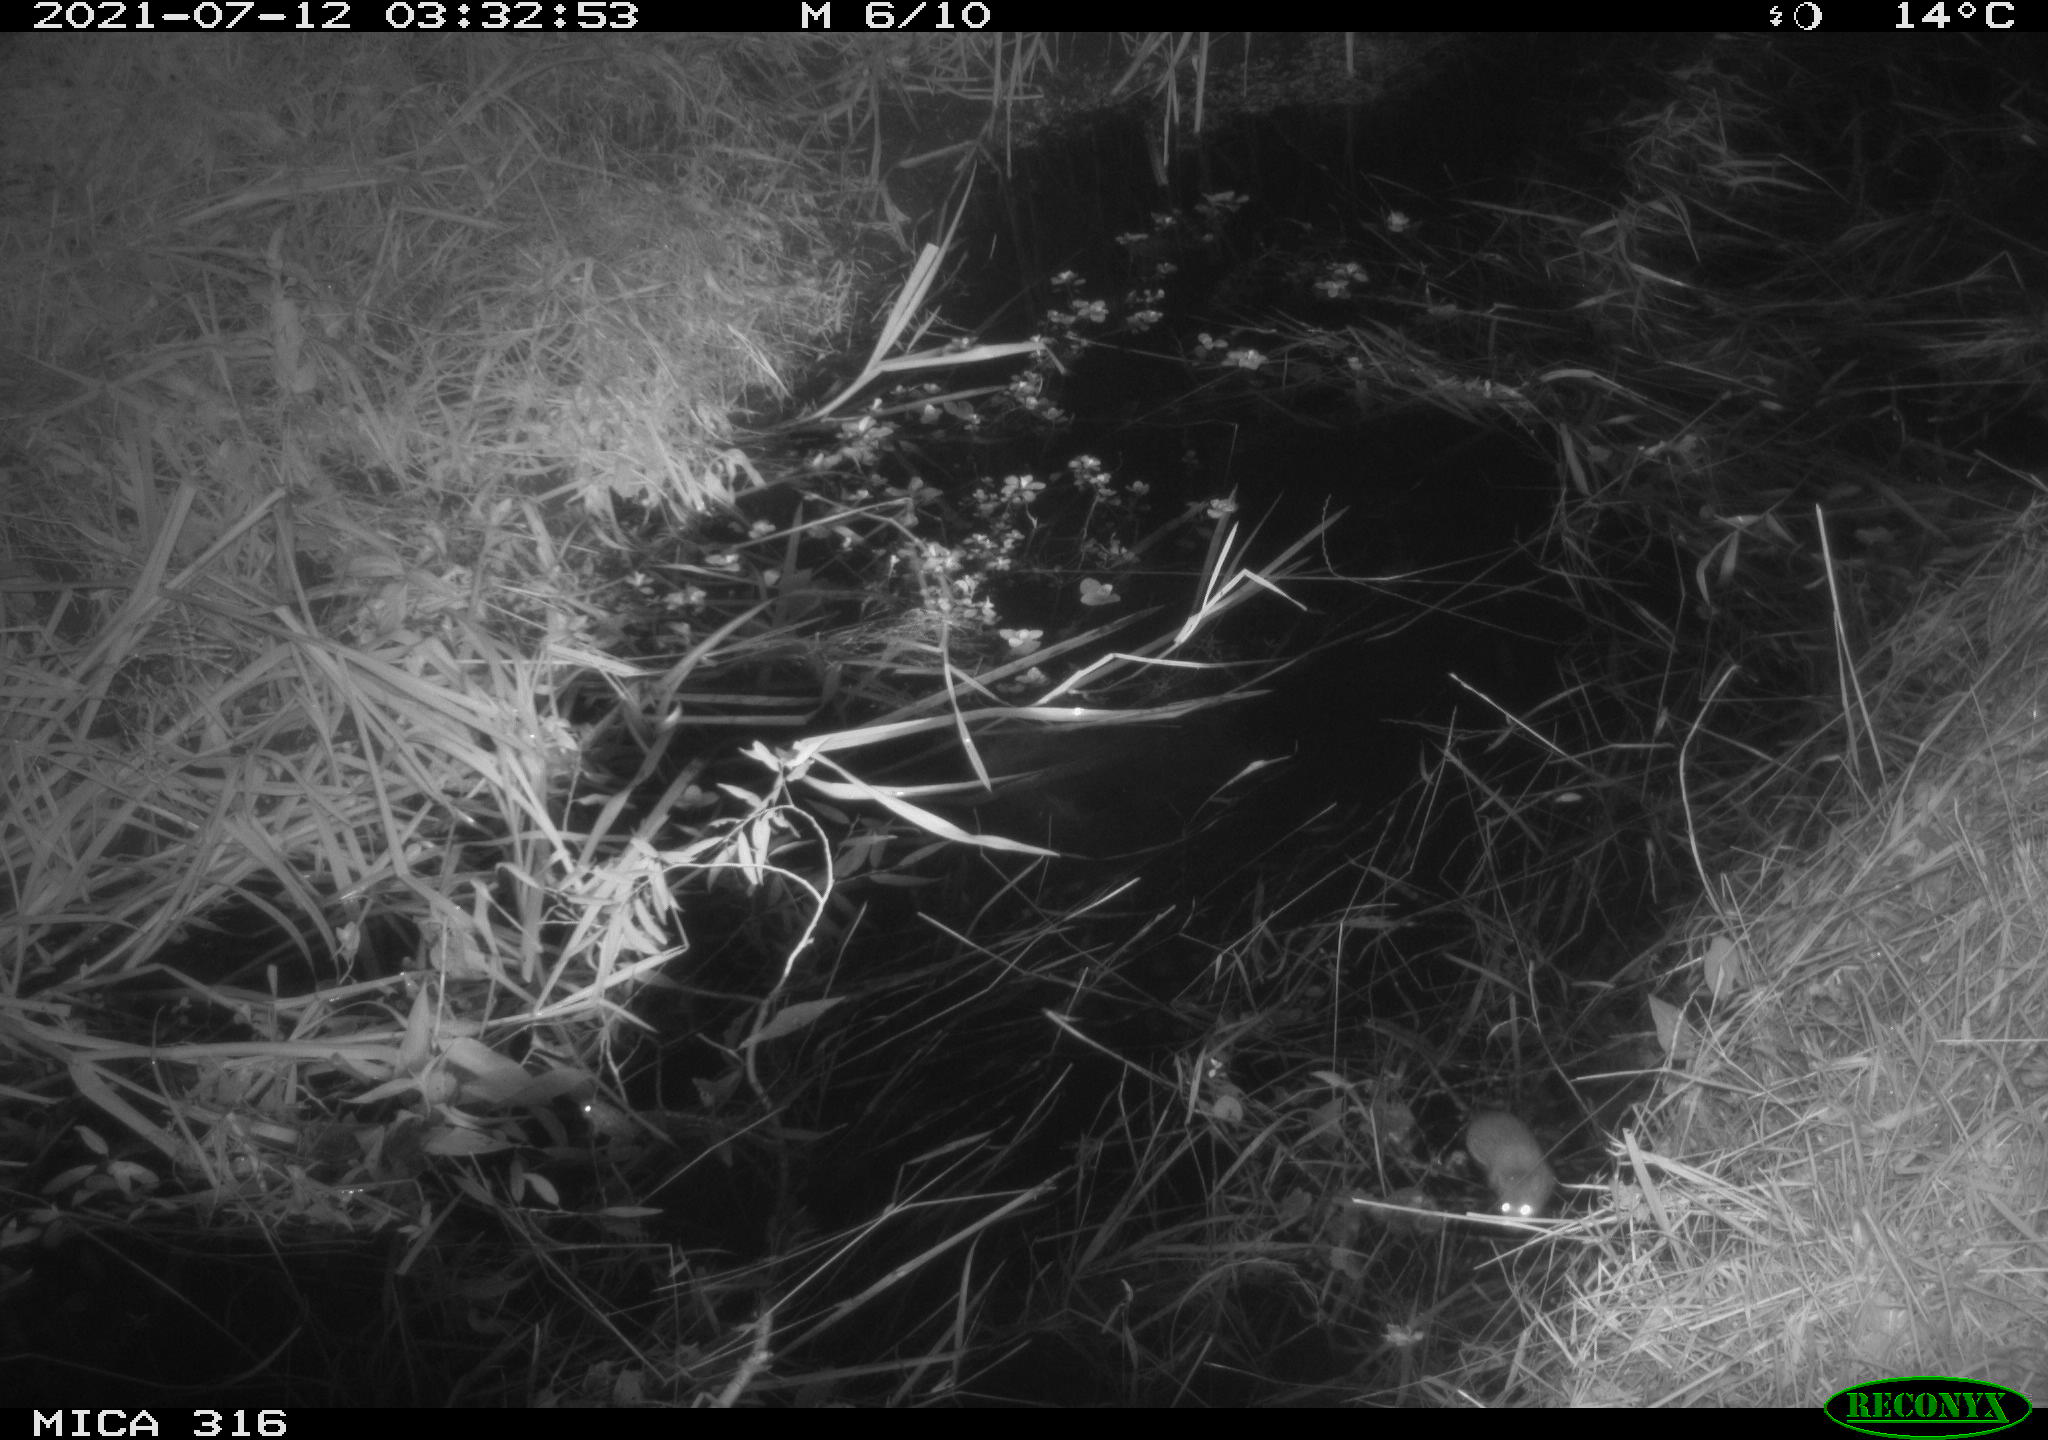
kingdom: Animalia
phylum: Chordata
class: Mammalia
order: Rodentia
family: Muridae
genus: Rattus
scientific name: Rattus norvegicus
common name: Brown rat
